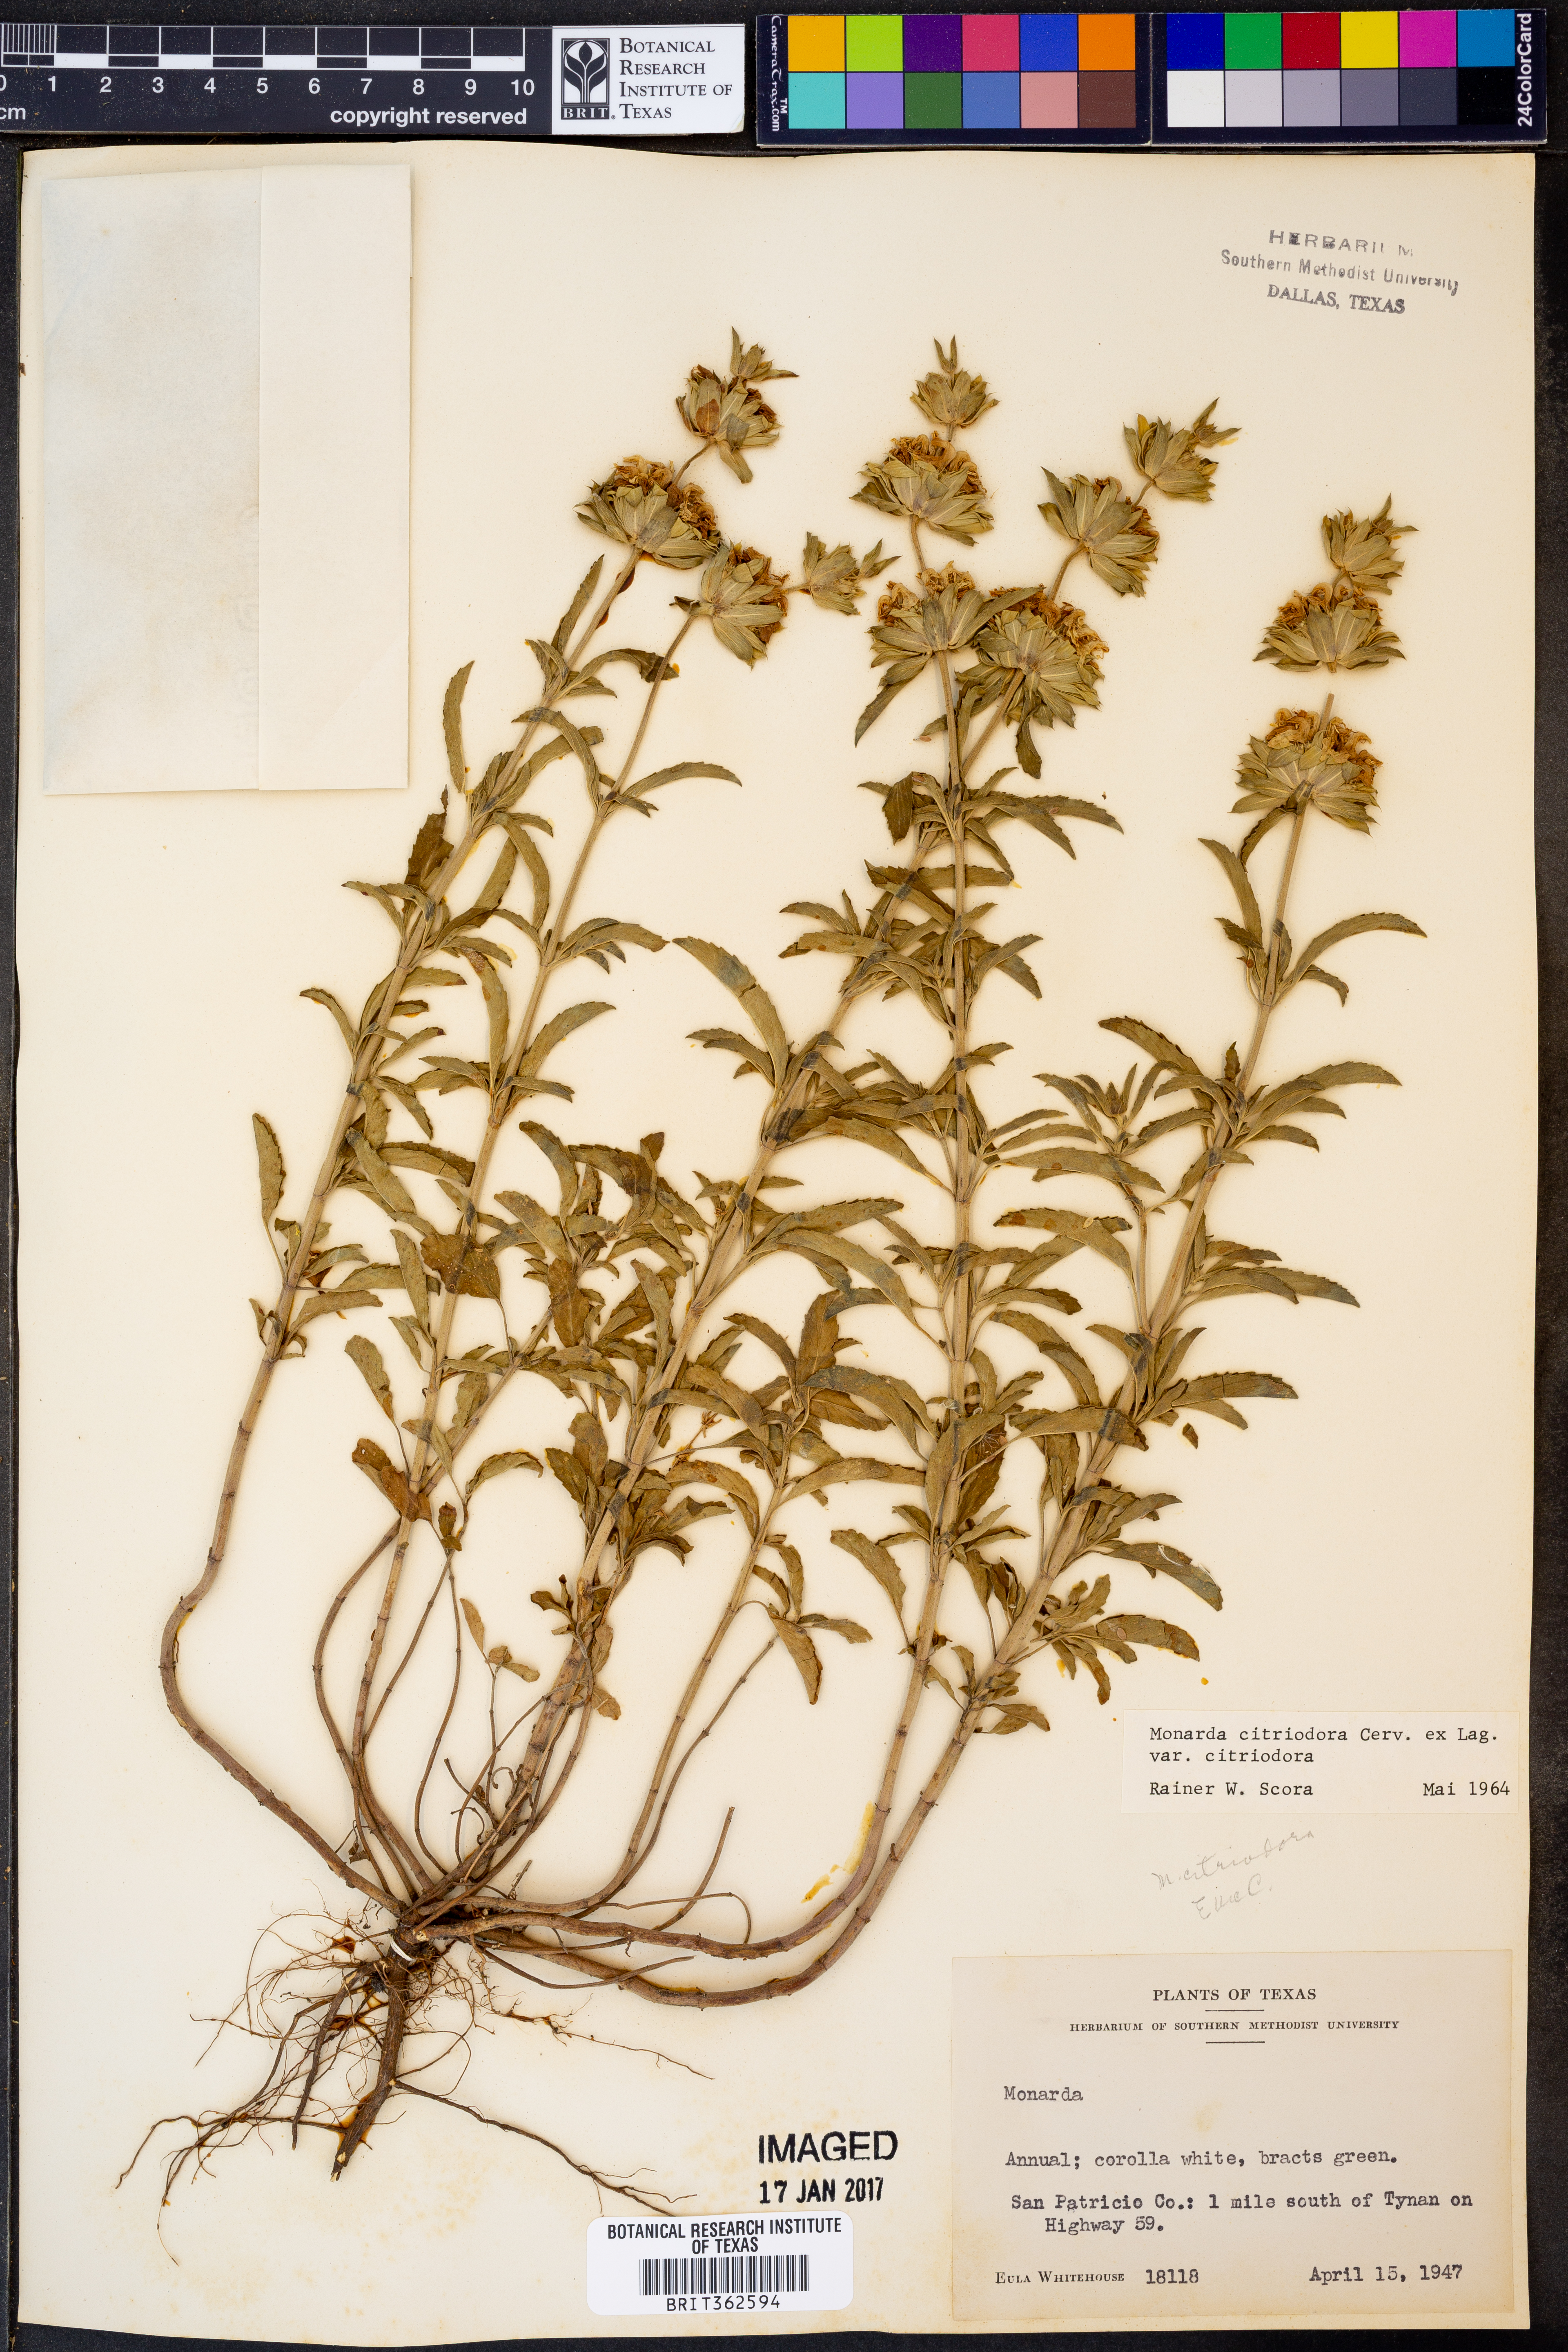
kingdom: Plantae
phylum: Tracheophyta
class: Magnoliopsida
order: Lamiales
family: Lamiaceae
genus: Monarda
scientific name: Monarda citriodora
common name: Lemon beebalm
